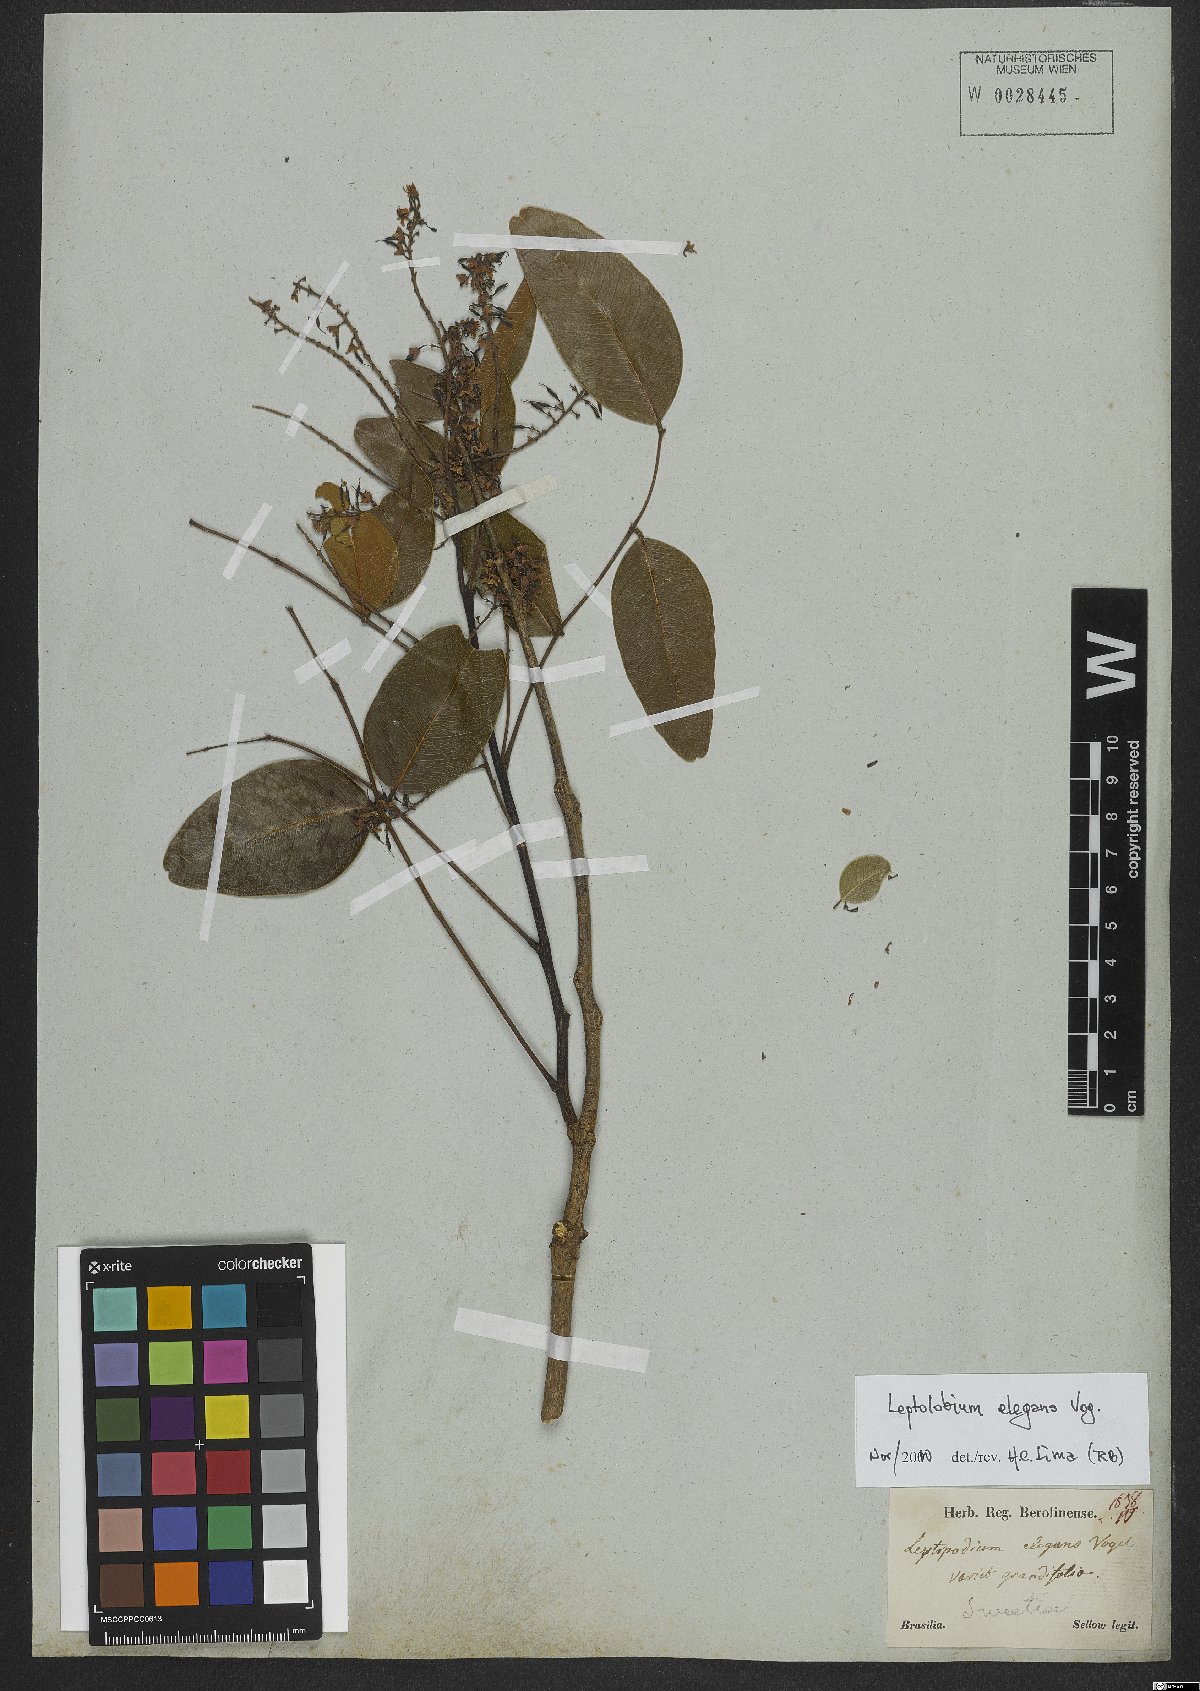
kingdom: Plantae
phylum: Tracheophyta
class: Magnoliopsida
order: Fabales
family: Fabaceae
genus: Leptolobium
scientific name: Leptolobium elegans
